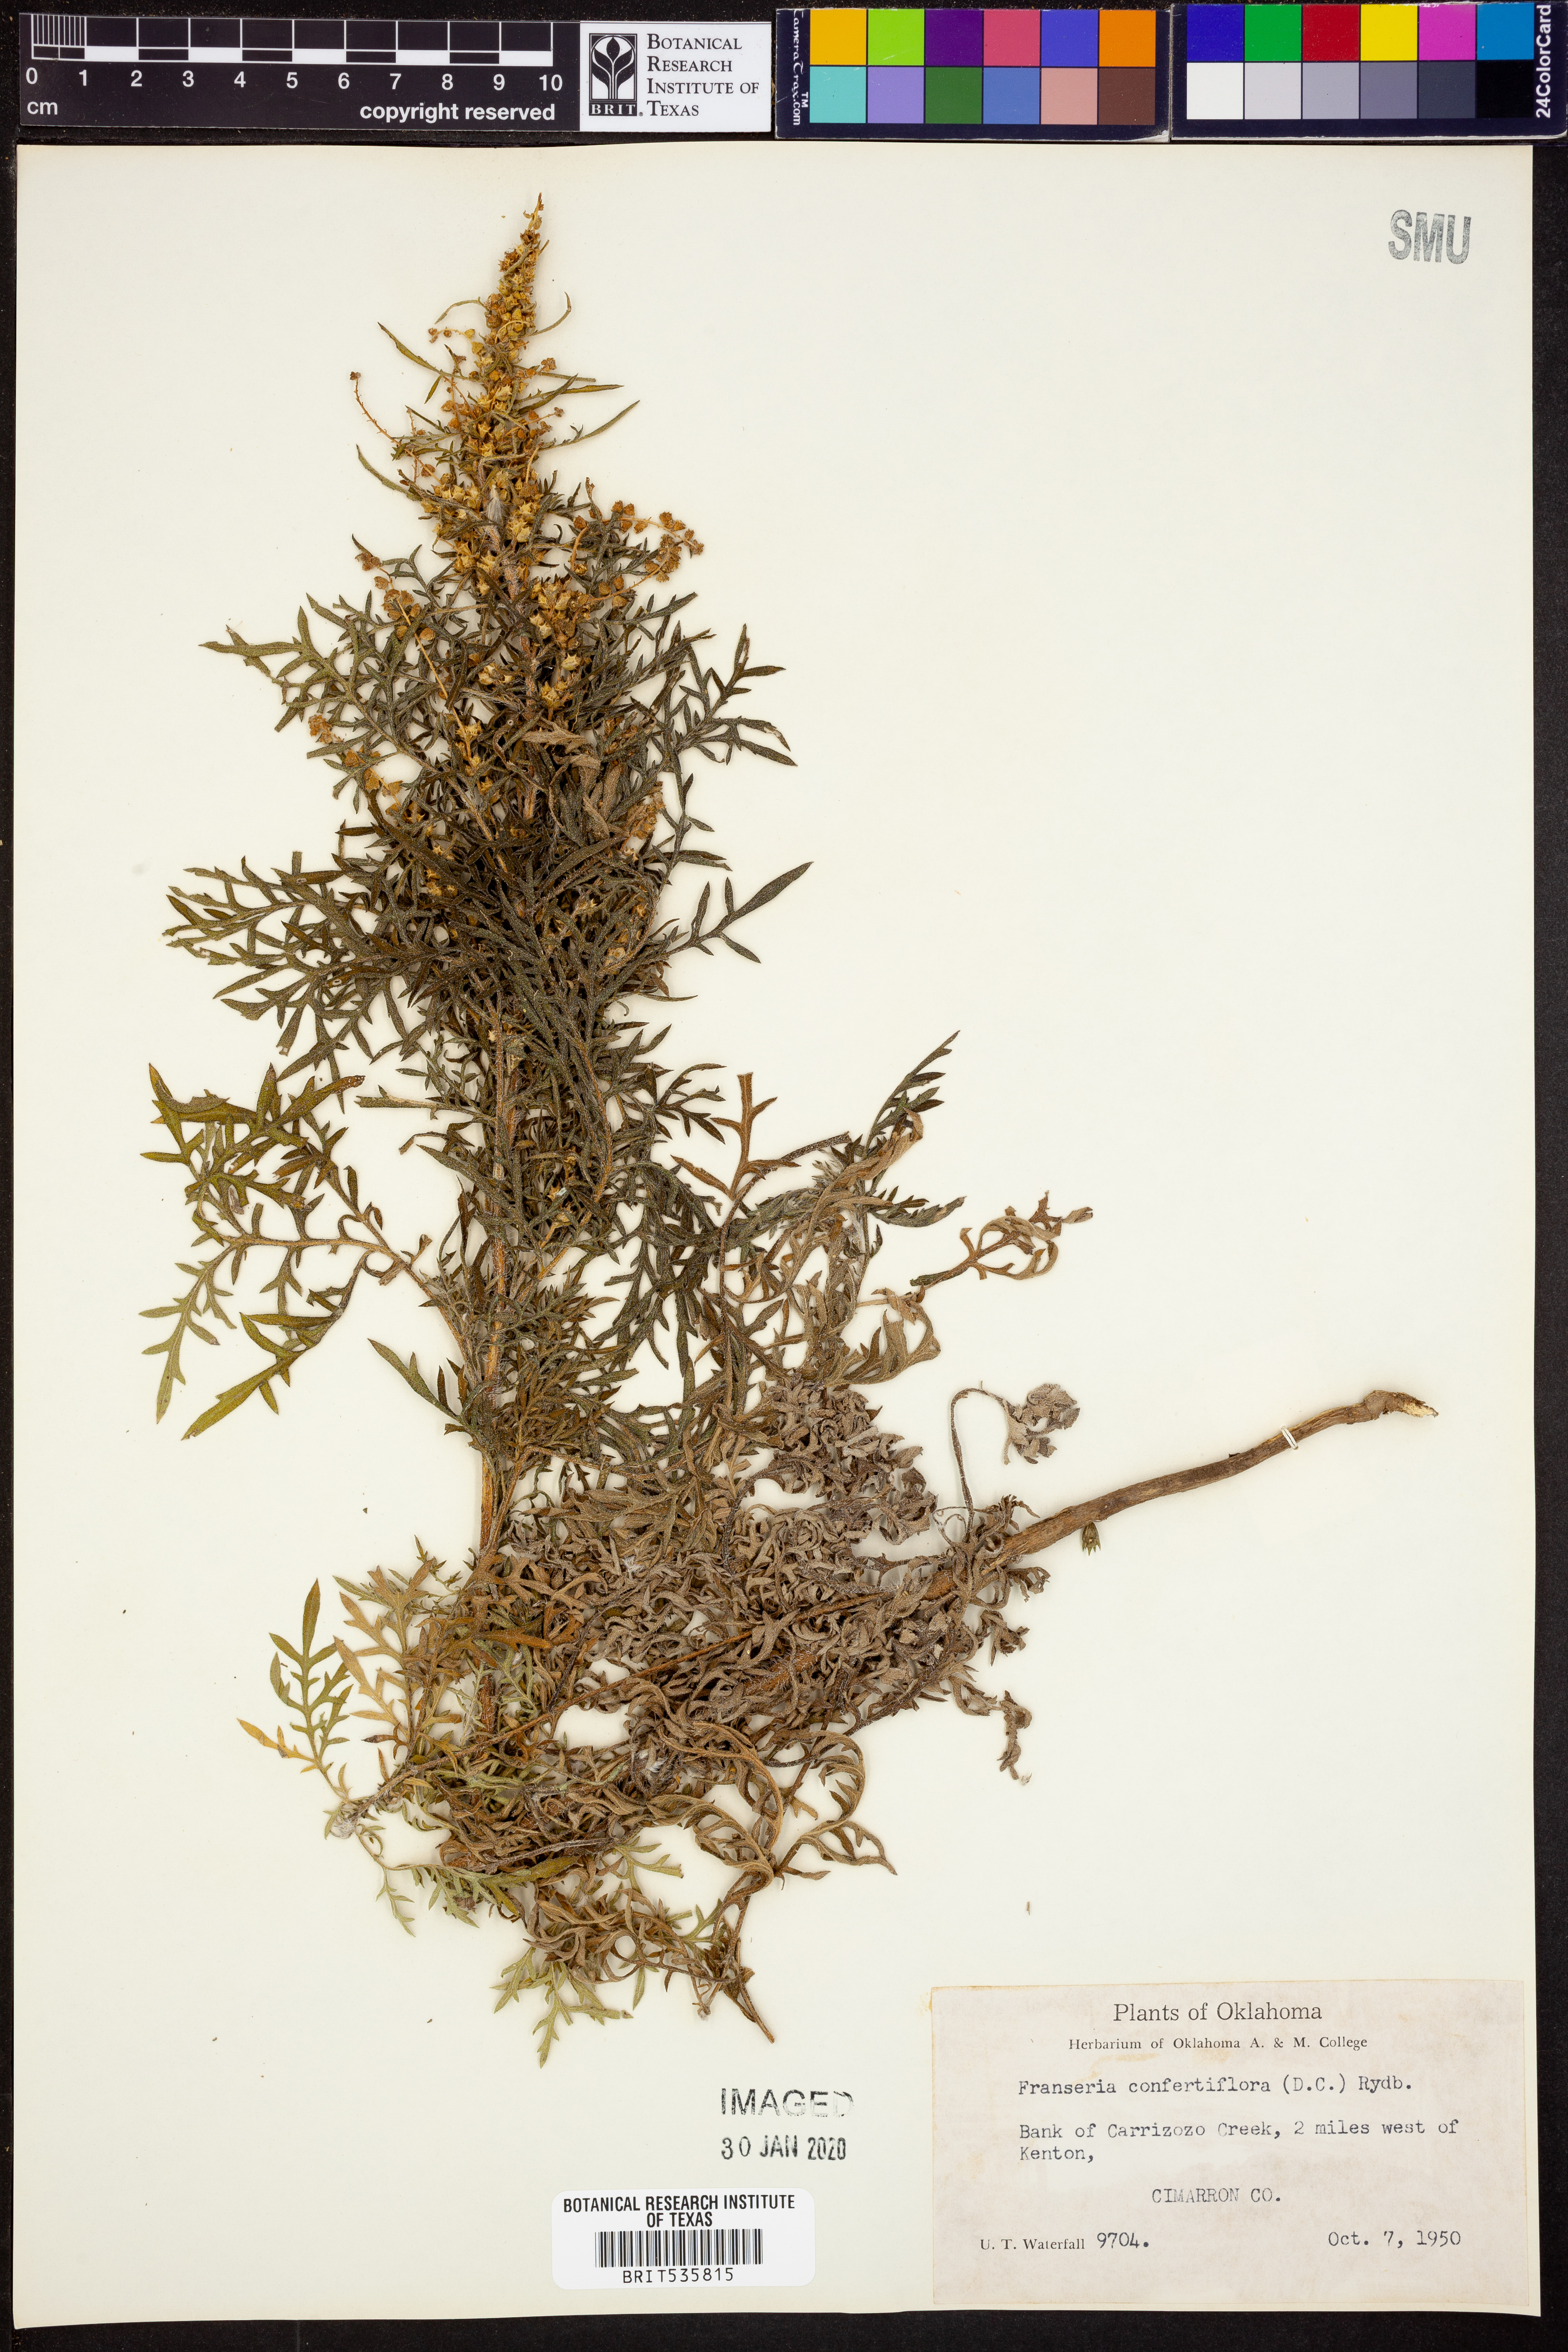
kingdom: Plantae
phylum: Tracheophyta
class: Magnoliopsida
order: Asterales
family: Asteraceae
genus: Ambrosia
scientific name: Ambrosia confertiflora
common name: Bur ragweed
